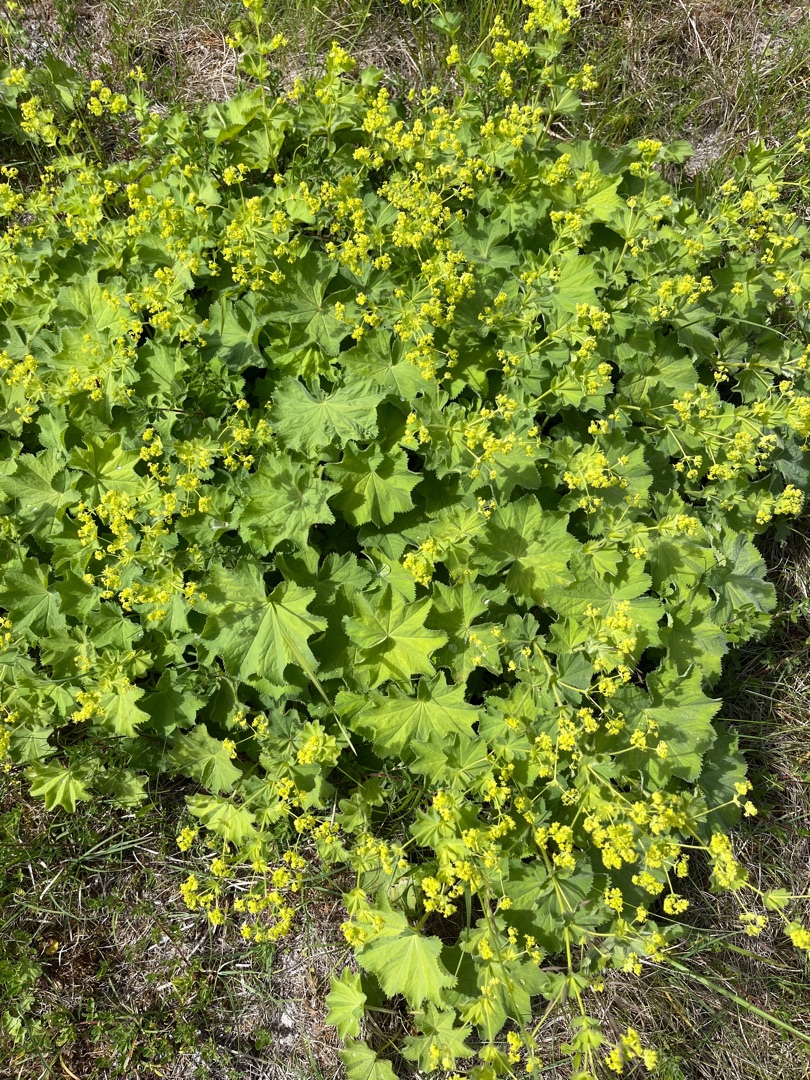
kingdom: Plantae
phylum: Tracheophyta
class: Magnoliopsida
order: Rosales
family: Rosaceae
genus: Alchemilla
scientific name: Alchemilla mollis
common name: Lådden løvefod
